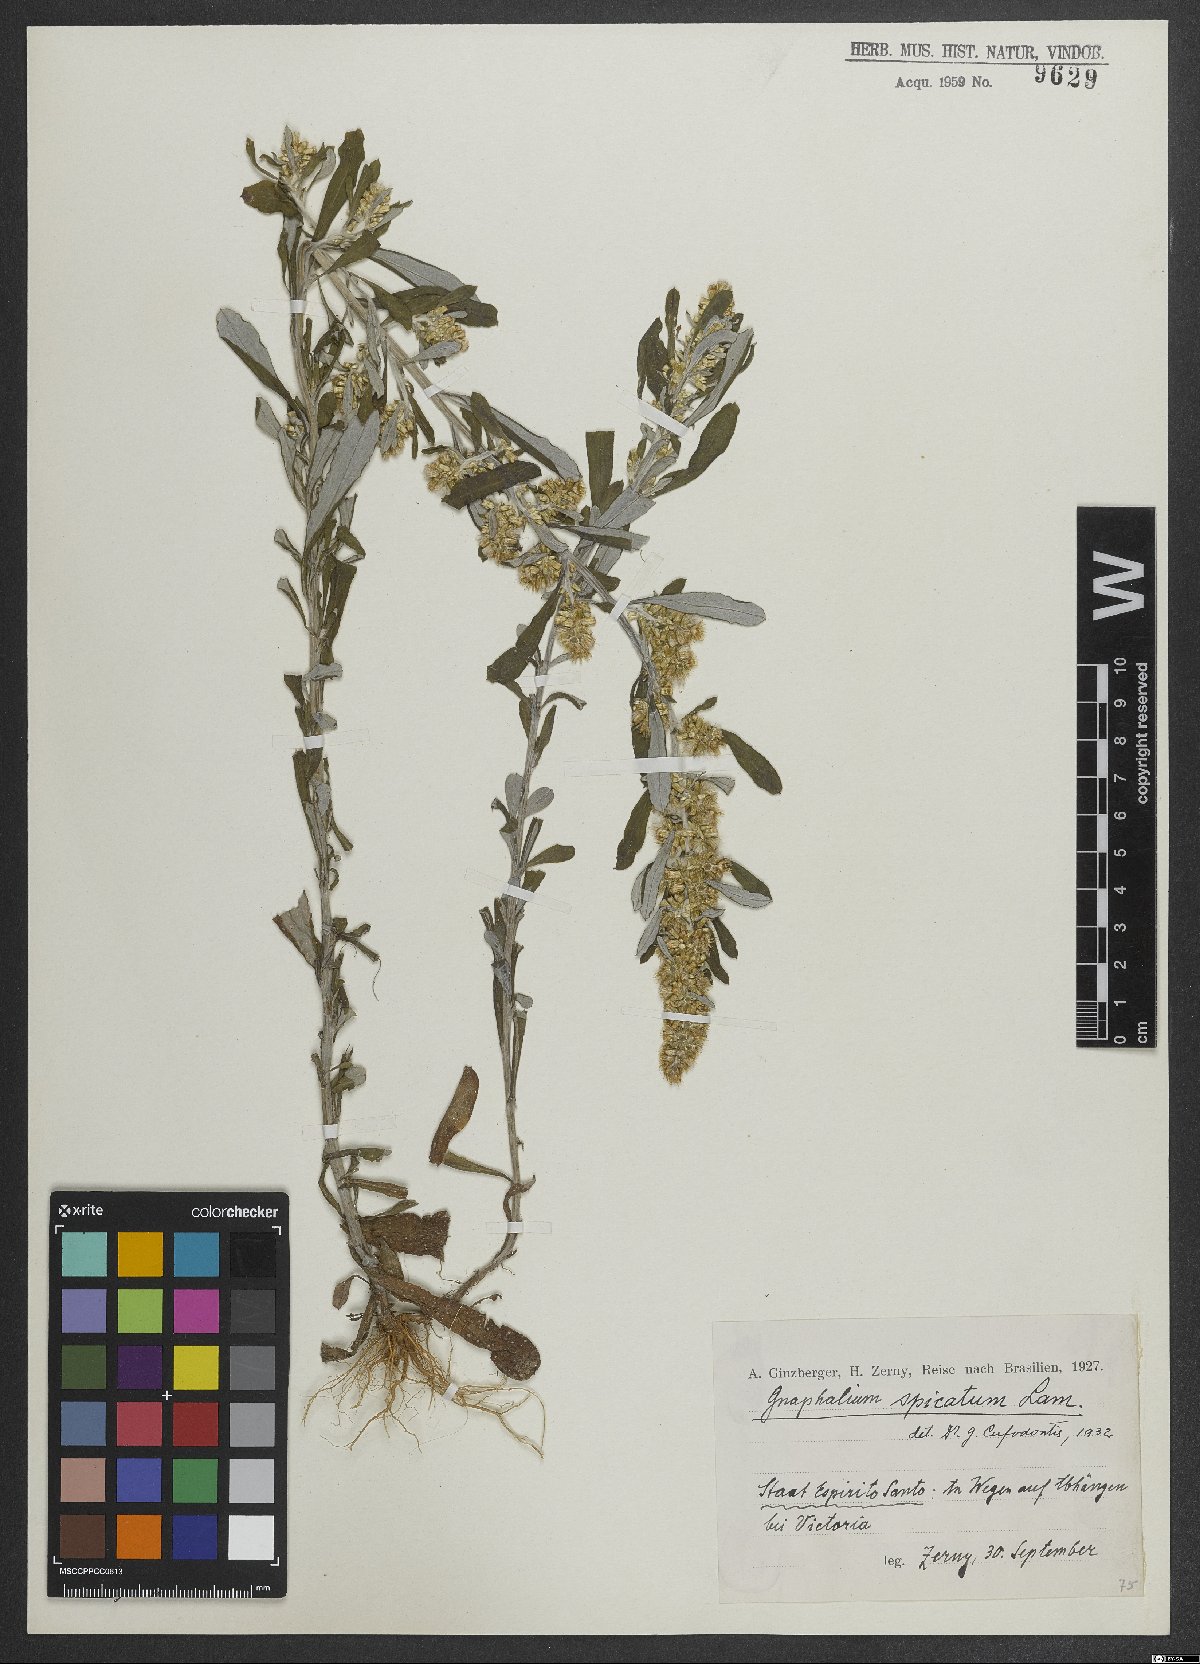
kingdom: Plantae
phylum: Tracheophyta
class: Magnoliopsida
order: Asterales
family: Asteraceae
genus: Gamochaeta
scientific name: Gamochaeta americana
